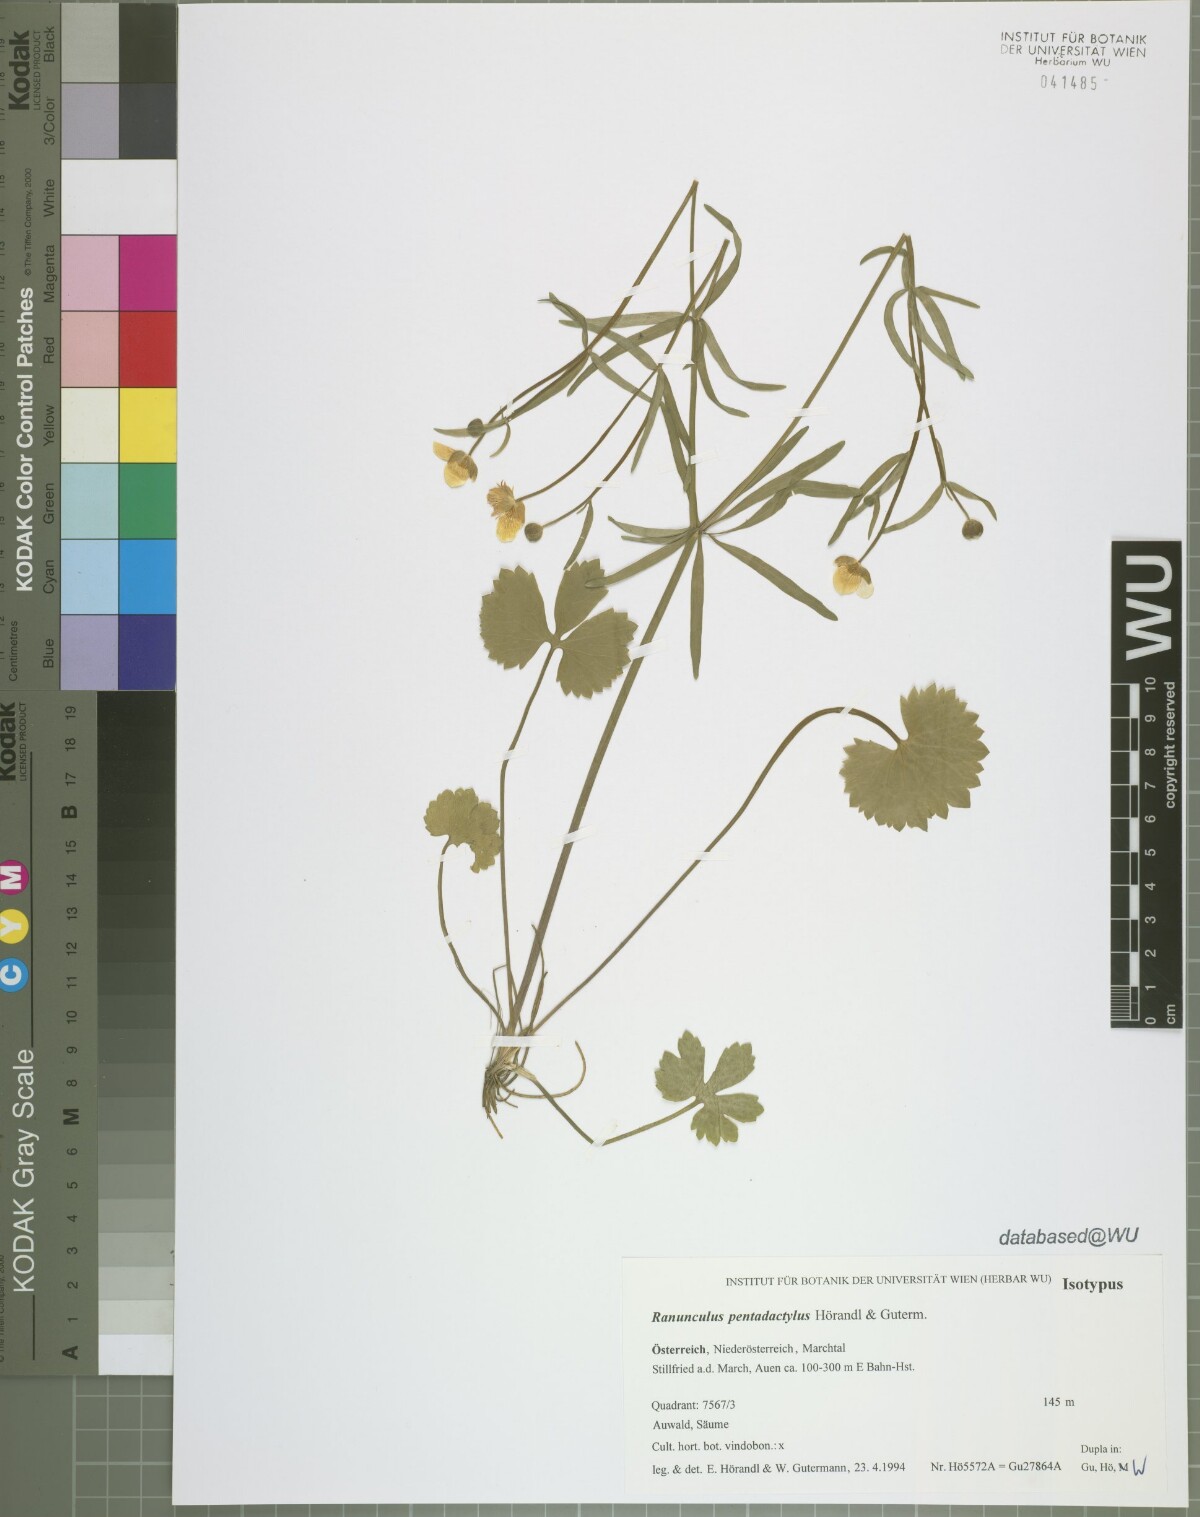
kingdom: Plantae
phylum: Tracheophyta
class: Magnoliopsida
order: Ranunculales
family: Ranunculaceae
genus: Ranunculus
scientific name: Ranunculus pentadactylus
